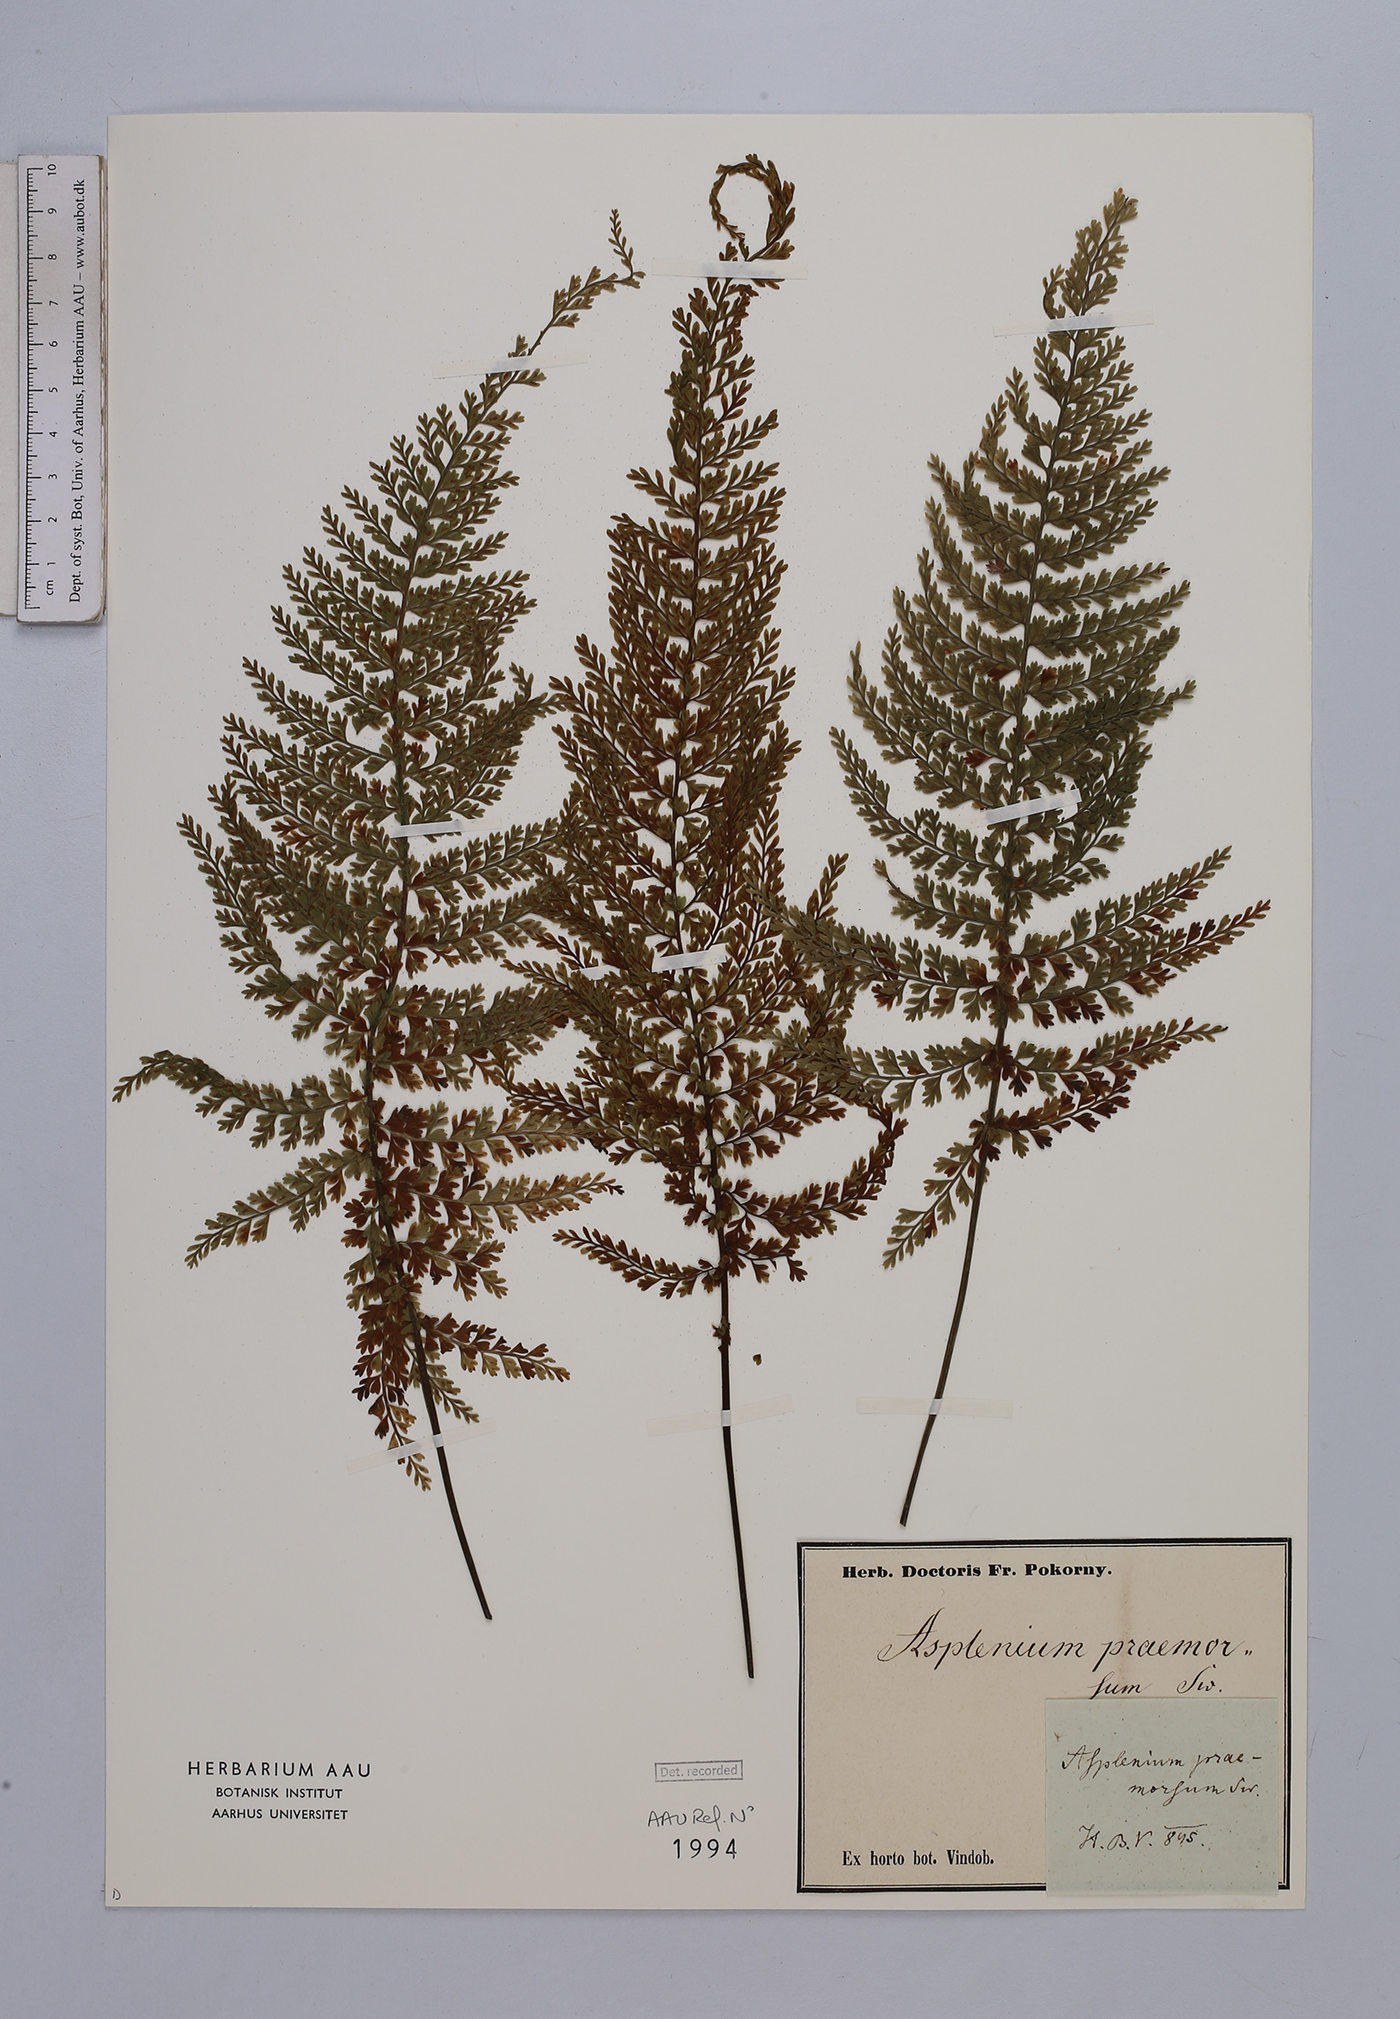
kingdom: Plantae
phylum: Tracheophyta
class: Polypodiopsida
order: Polypodiales
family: Aspleniaceae
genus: Asplenium
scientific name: Asplenium praemorsum
